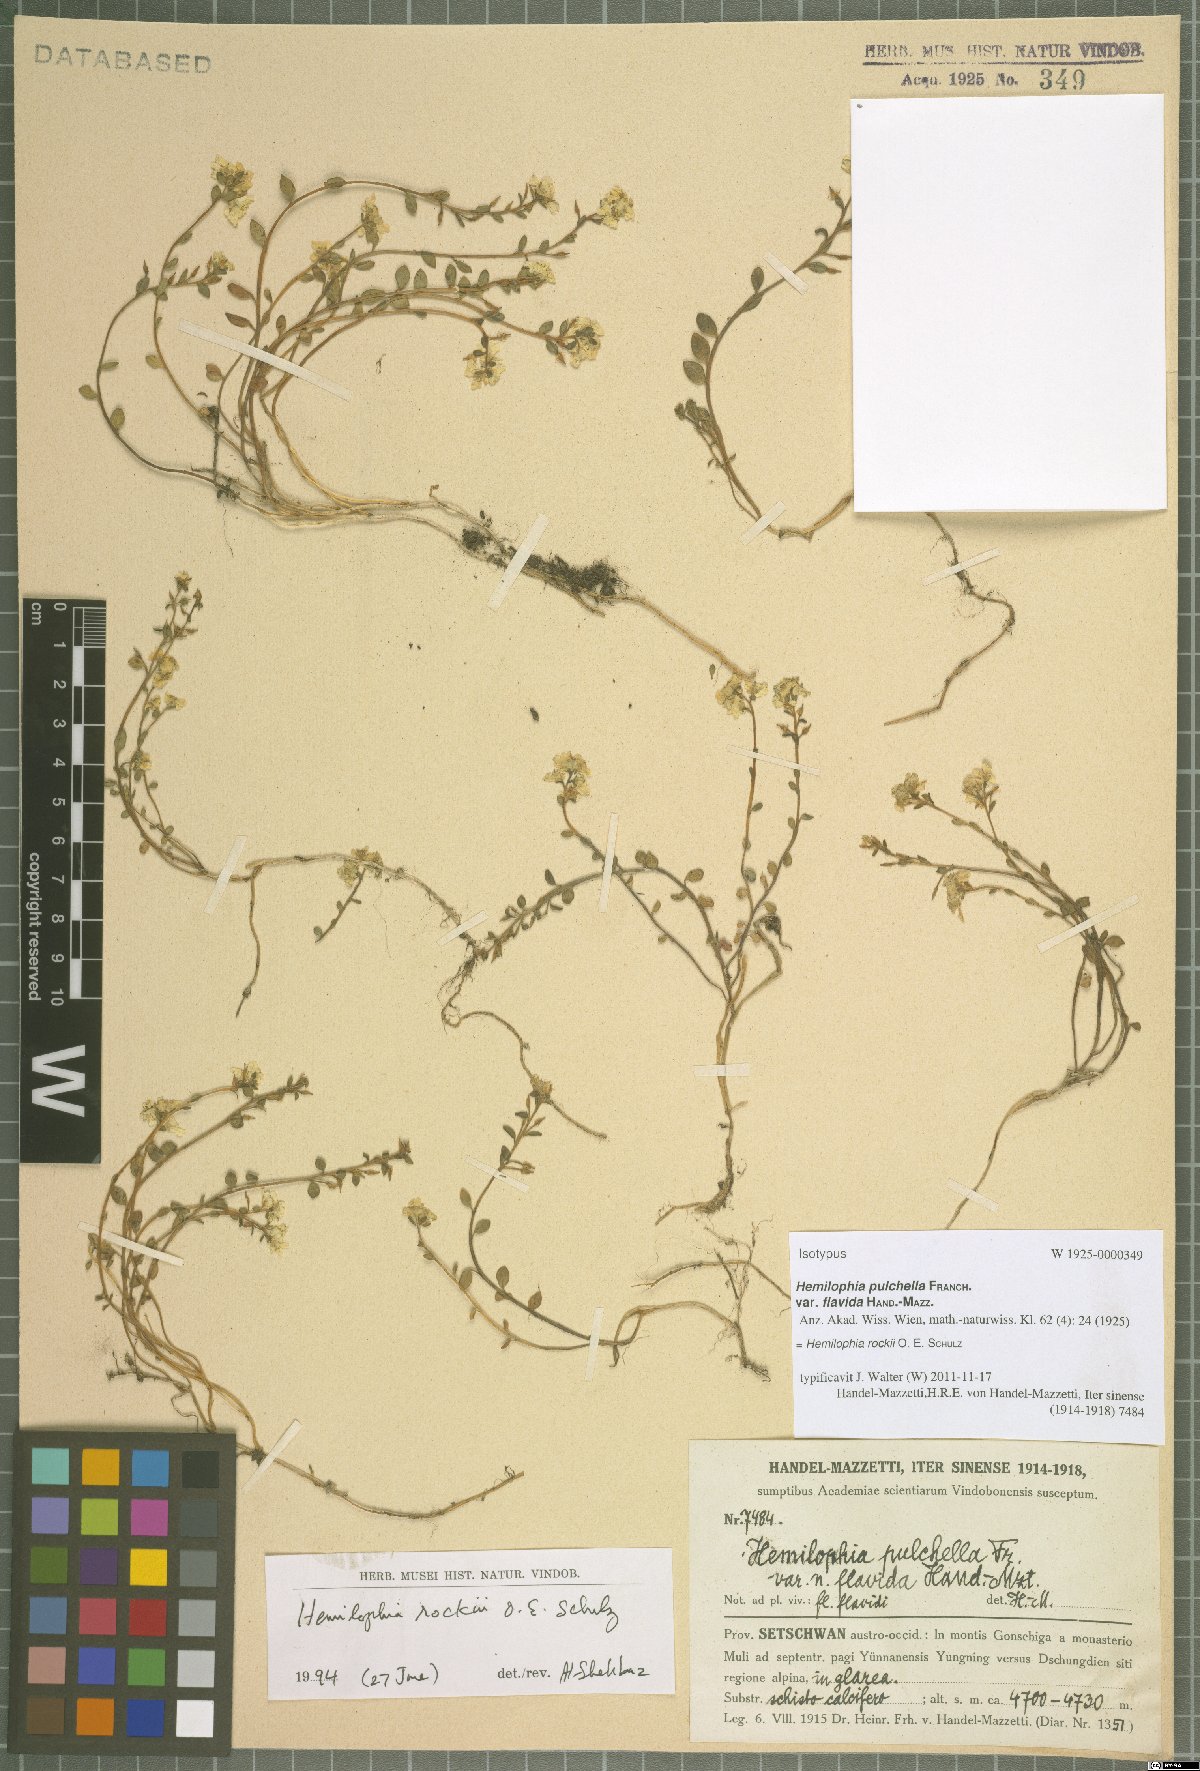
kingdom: Plantae
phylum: Tracheophyta
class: Magnoliopsida
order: Brassicales
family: Brassicaceae
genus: Hemilophia
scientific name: Hemilophia rockii
